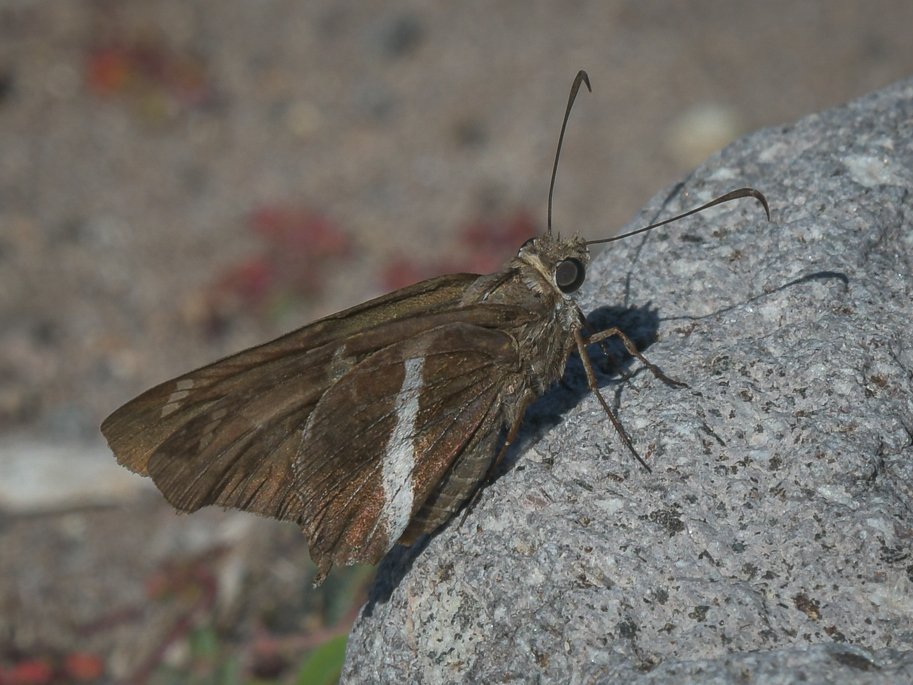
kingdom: Animalia
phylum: Arthropoda
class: Insecta
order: Lepidoptera
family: Hesperiidae
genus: Chioides
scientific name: Chioides catillus
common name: White-striped Longtail
